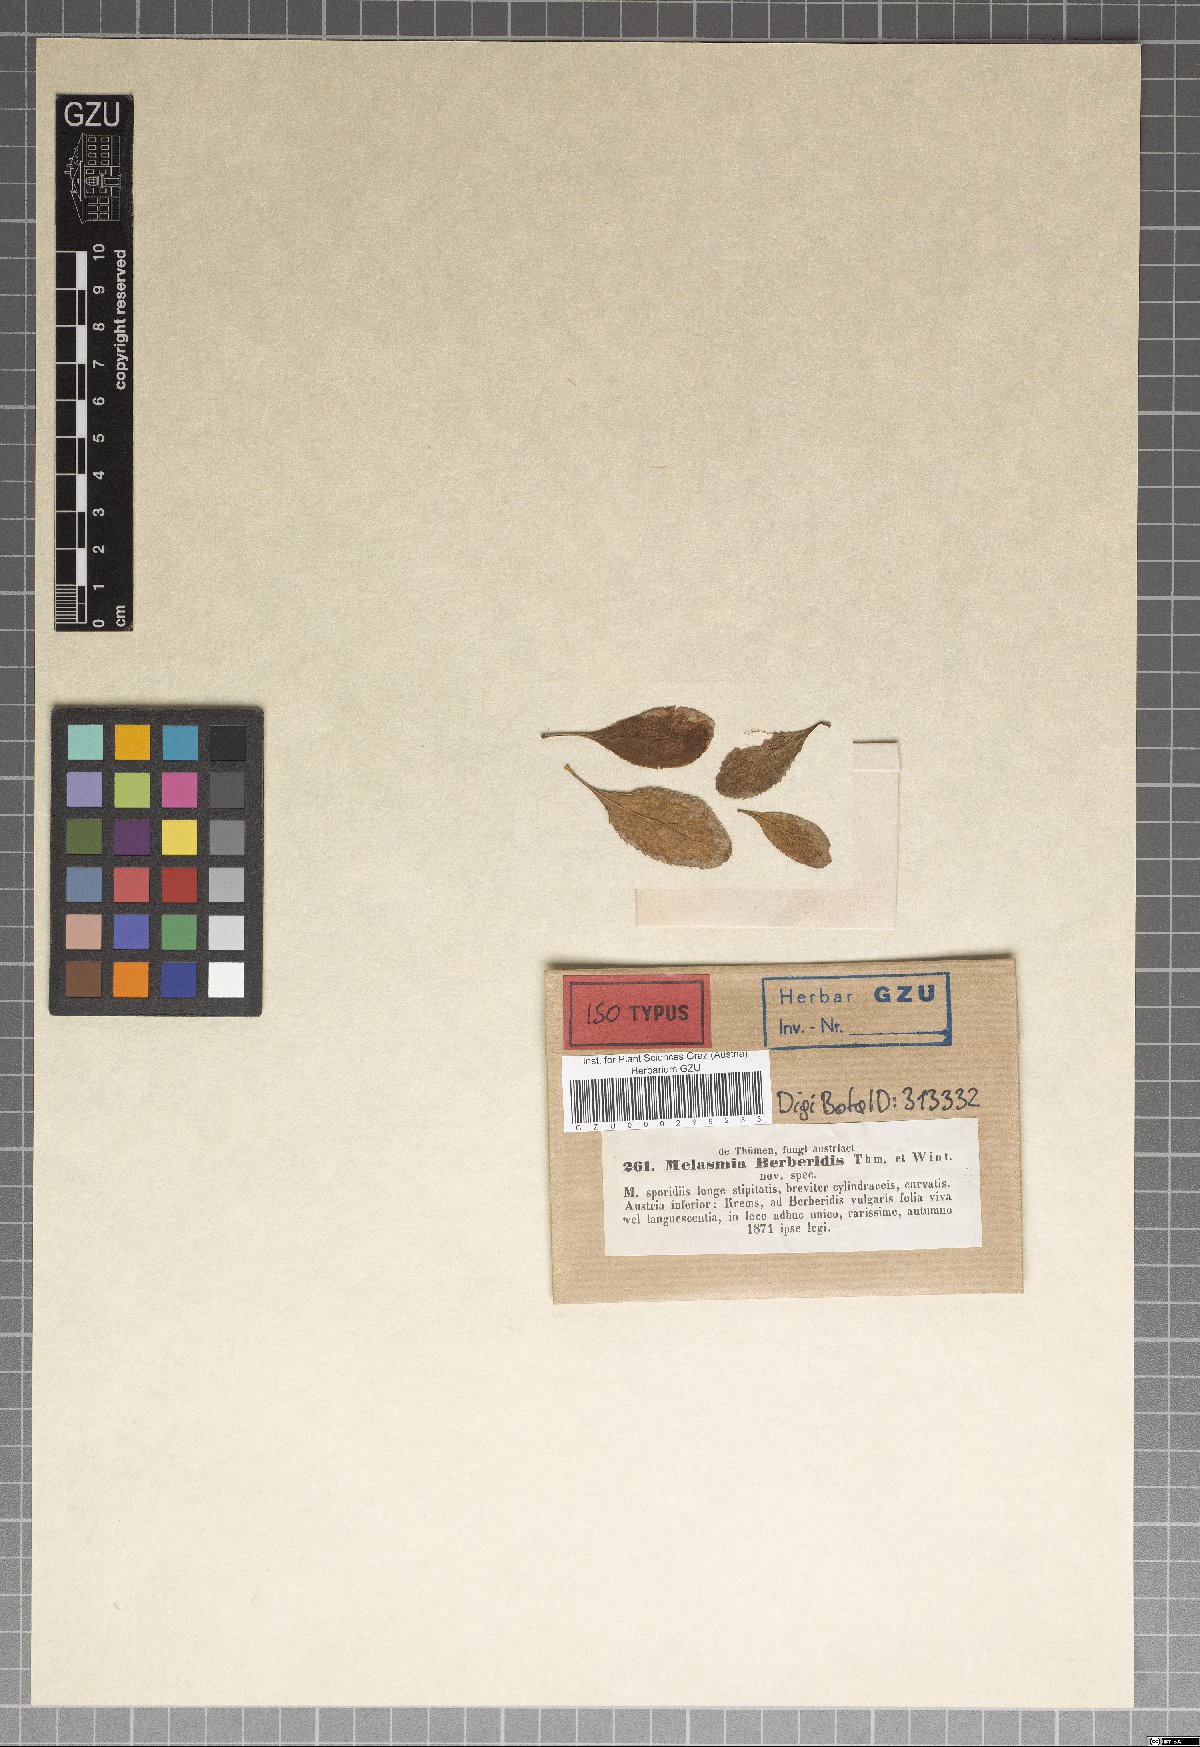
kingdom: Fungi
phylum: Ascomycota
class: Leotiomycetes
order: Rhytismatales
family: Rhytismataceae
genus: Leptostroma
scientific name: Leptostroma berberidis
